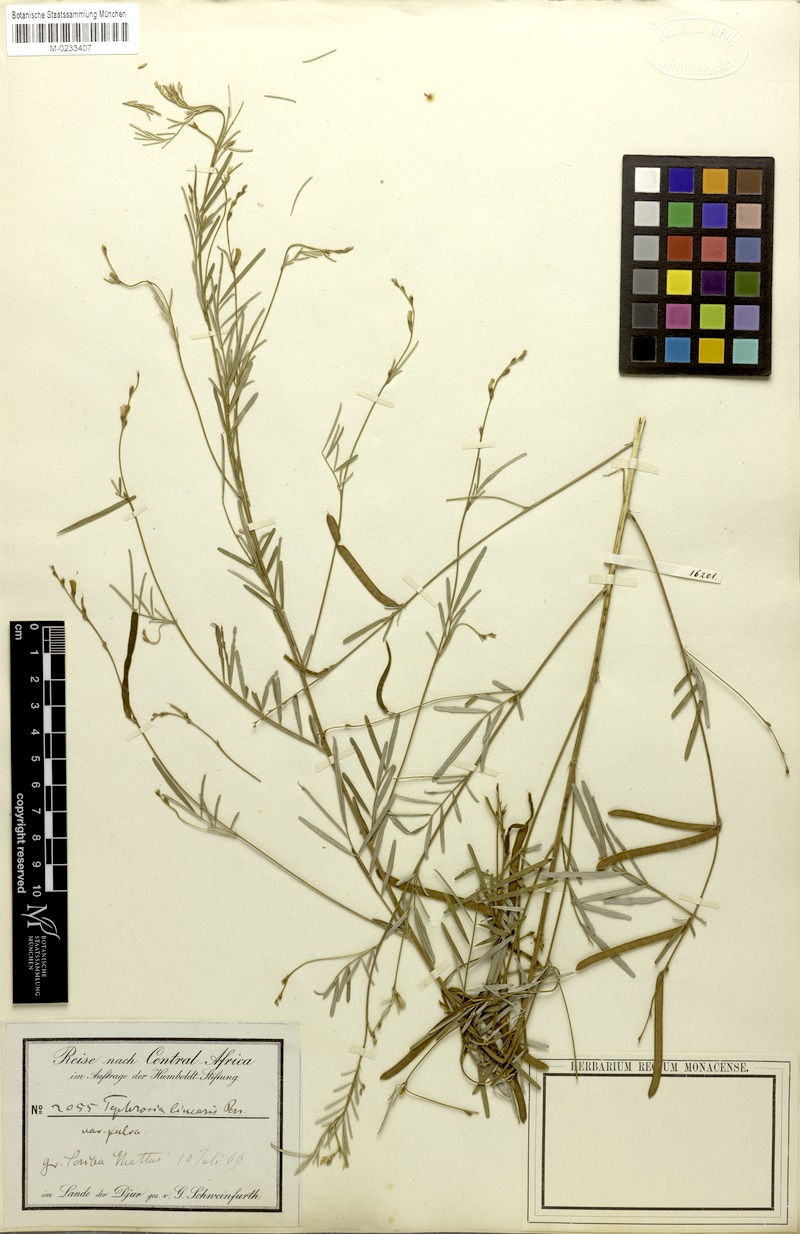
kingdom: Plantae
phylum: Tracheophyta
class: Magnoliopsida
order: Fabales
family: Fabaceae
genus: Tephrosia
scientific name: Tephrosia linearis
